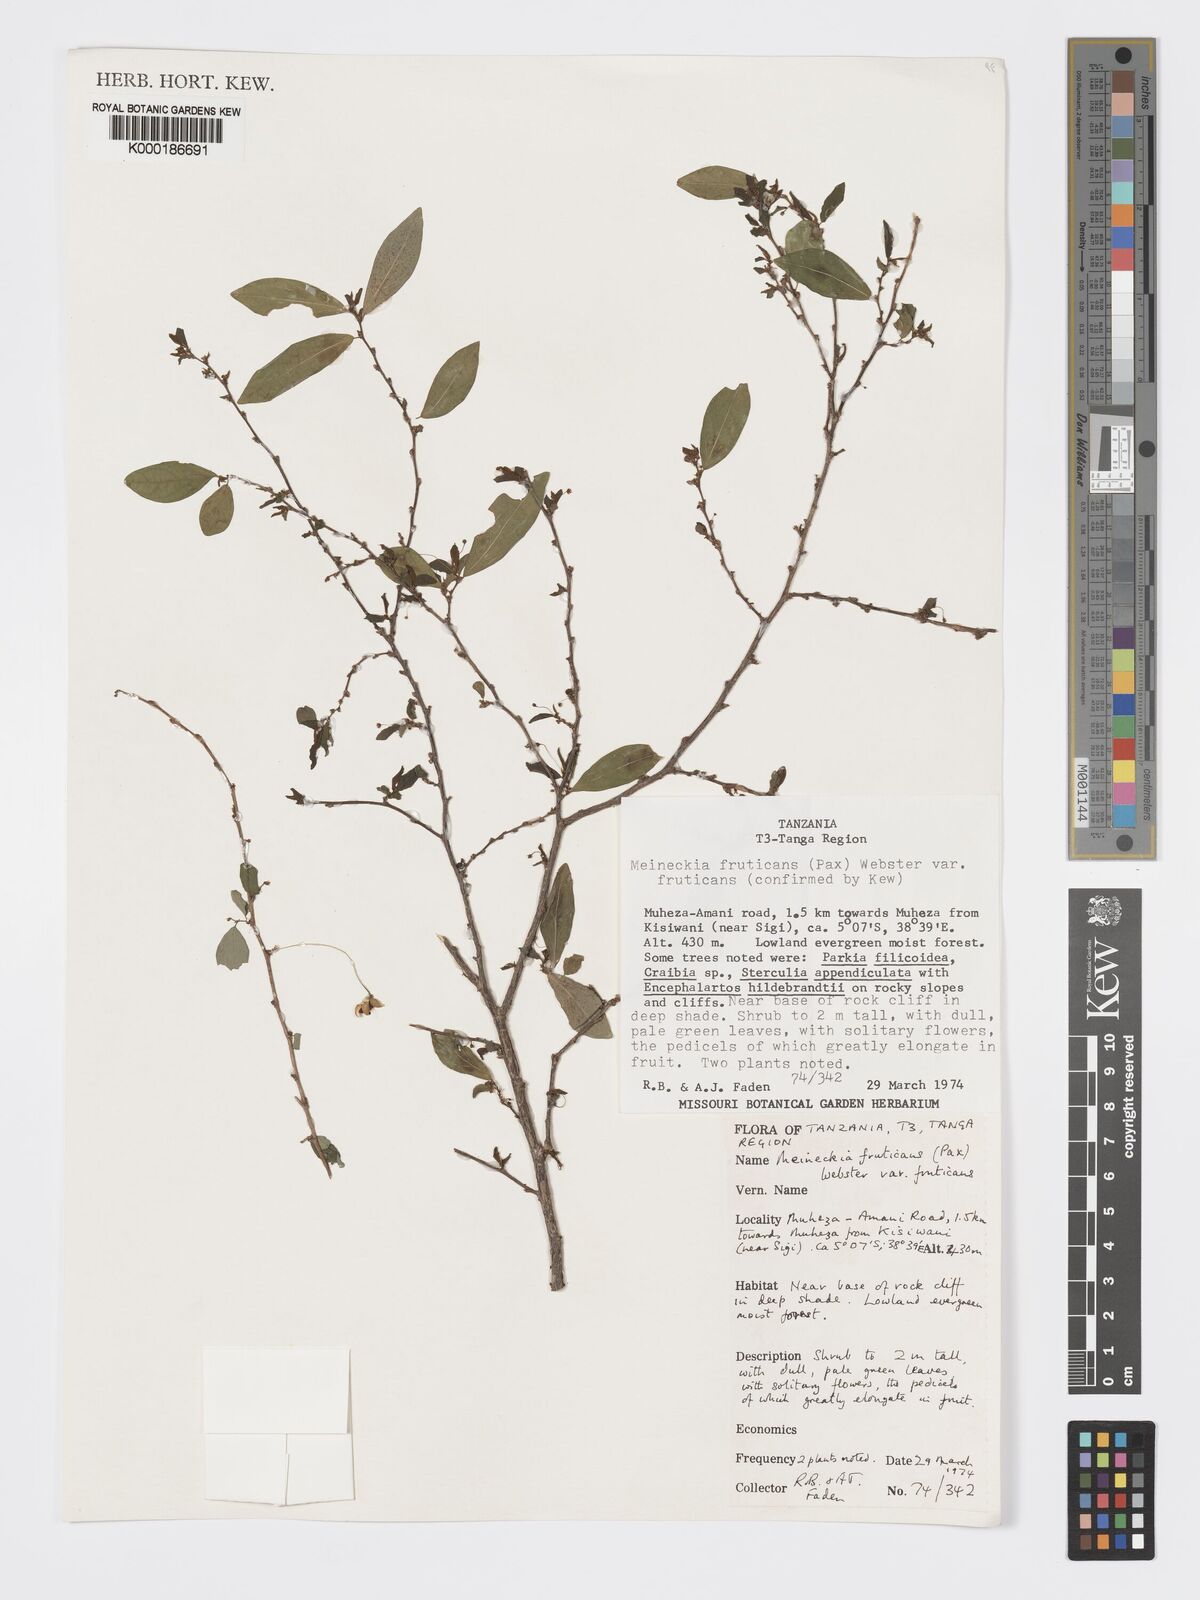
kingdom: Plantae
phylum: Tracheophyta
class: Magnoliopsida
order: Malpighiales
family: Phyllanthaceae
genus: Meineckia
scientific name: Meineckia fruticans
